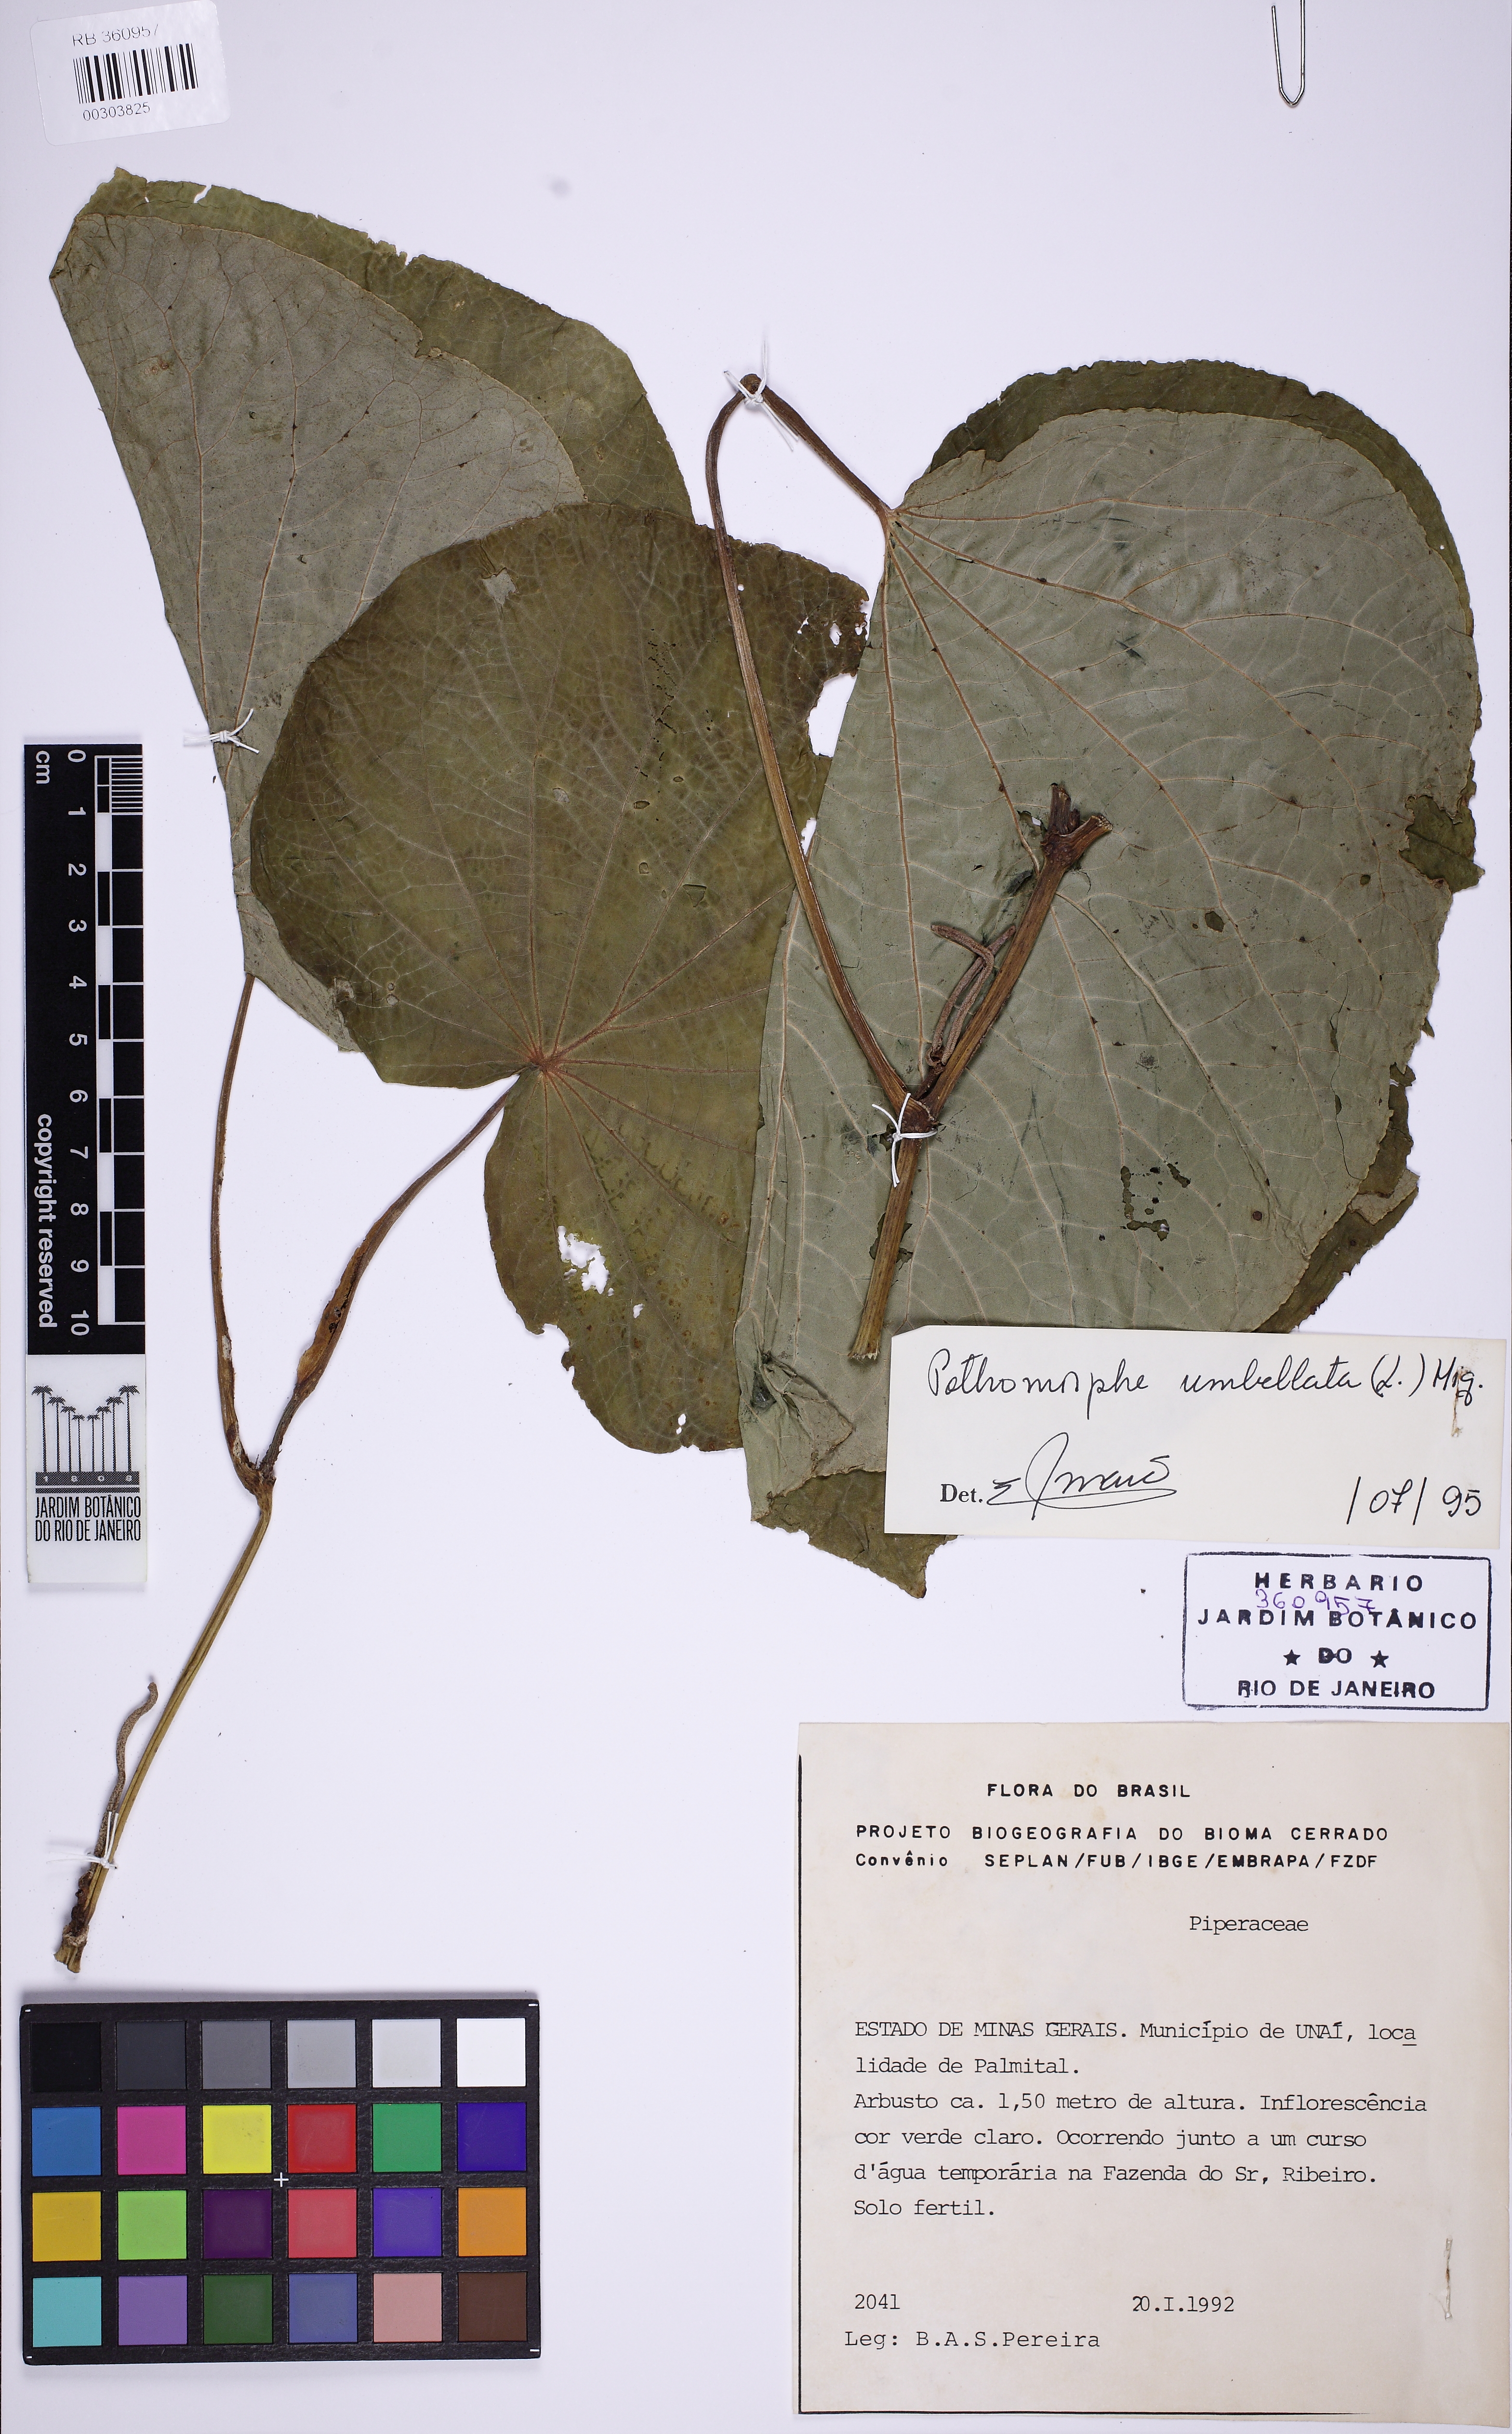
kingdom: Plantae
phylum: Tracheophyta
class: Magnoliopsida
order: Piperales
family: Piperaceae
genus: Piper
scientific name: Piper umbellatum
